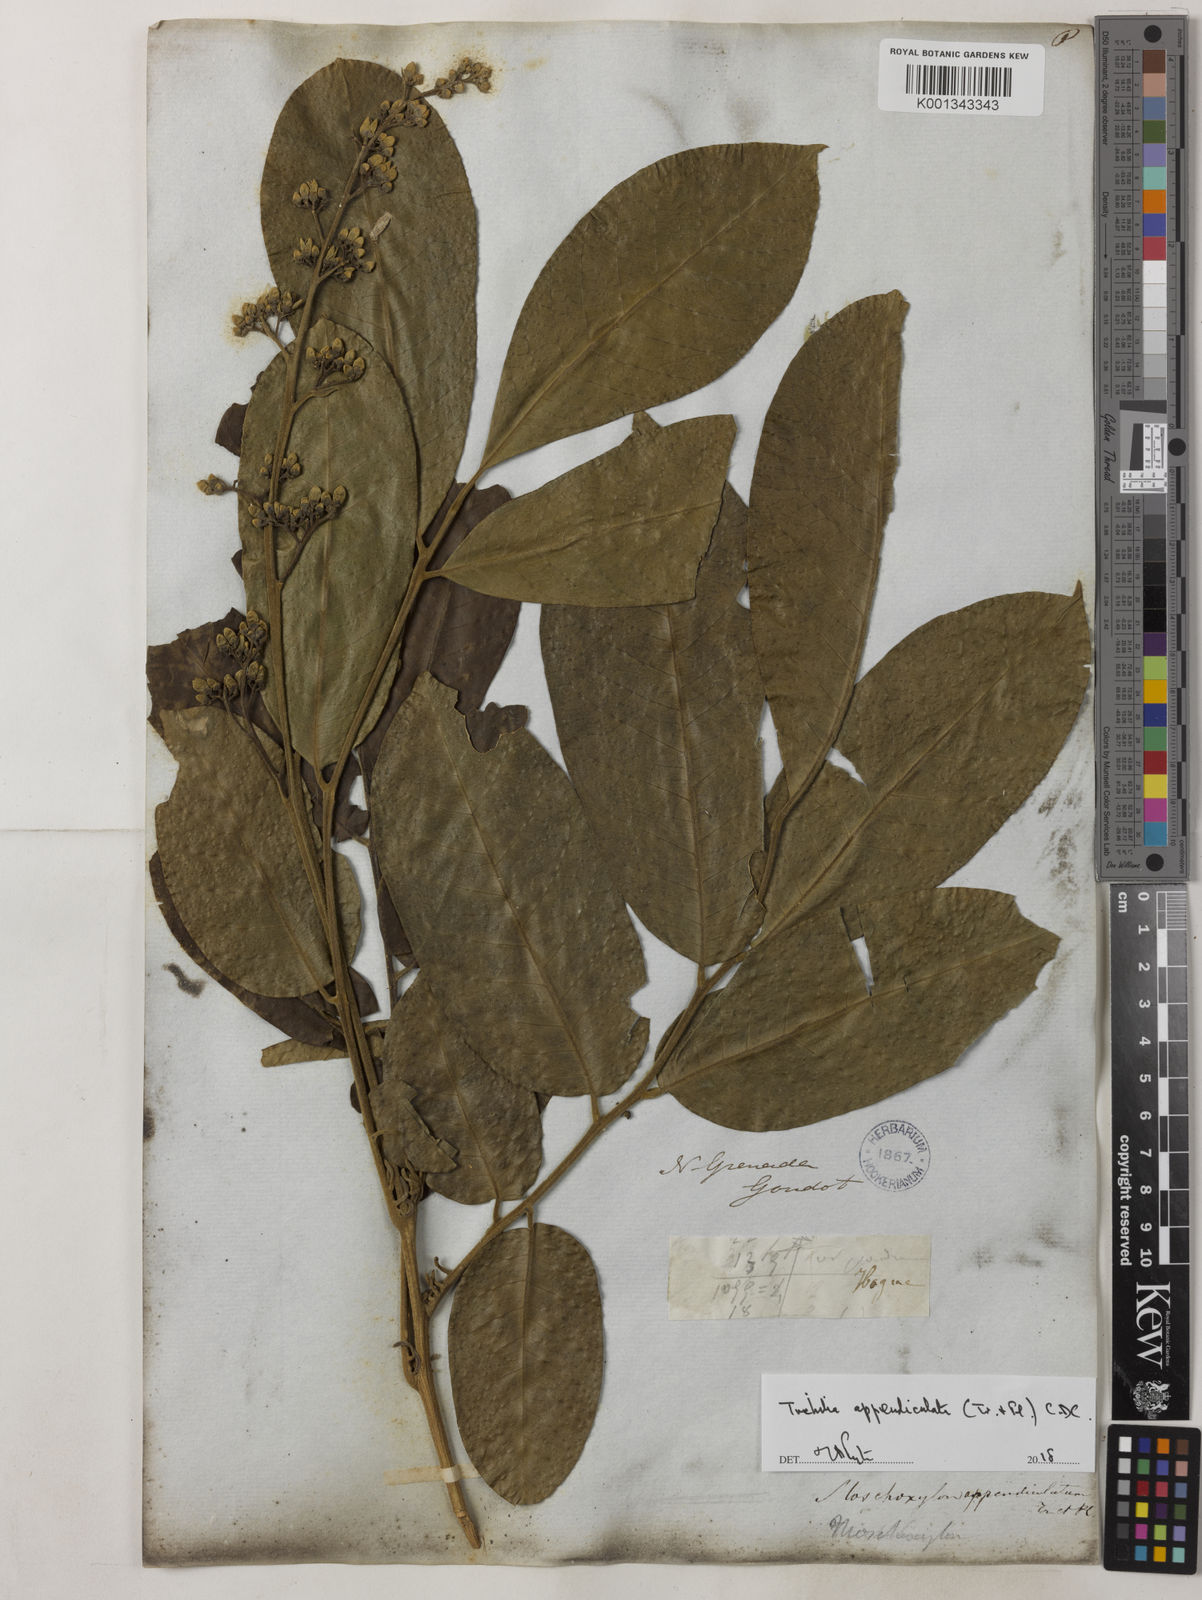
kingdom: Plantae
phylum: Tracheophyta
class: Magnoliopsida
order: Sapindales
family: Meliaceae
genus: Trichilia
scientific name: Trichilia appendiculata
